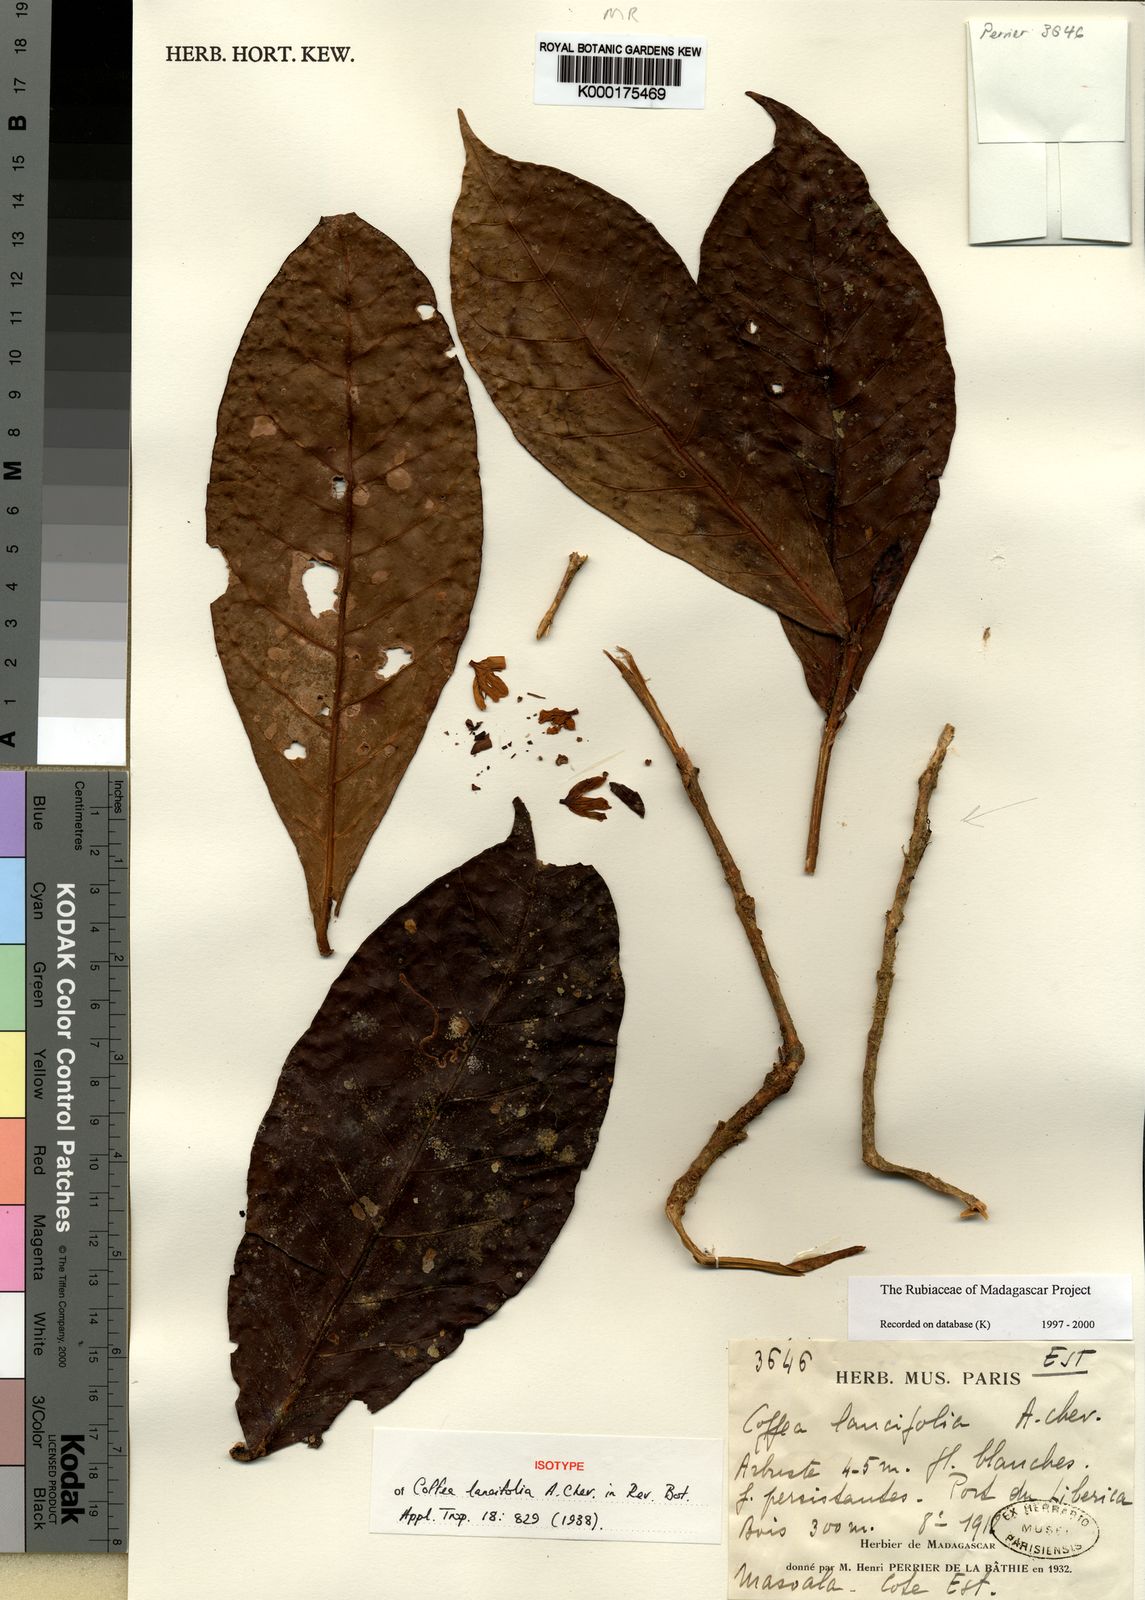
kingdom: Plantae
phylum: Tracheophyta
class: Magnoliopsida
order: Gentianales
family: Rubiaceae
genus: Coffea
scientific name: Coffea lancifolia
